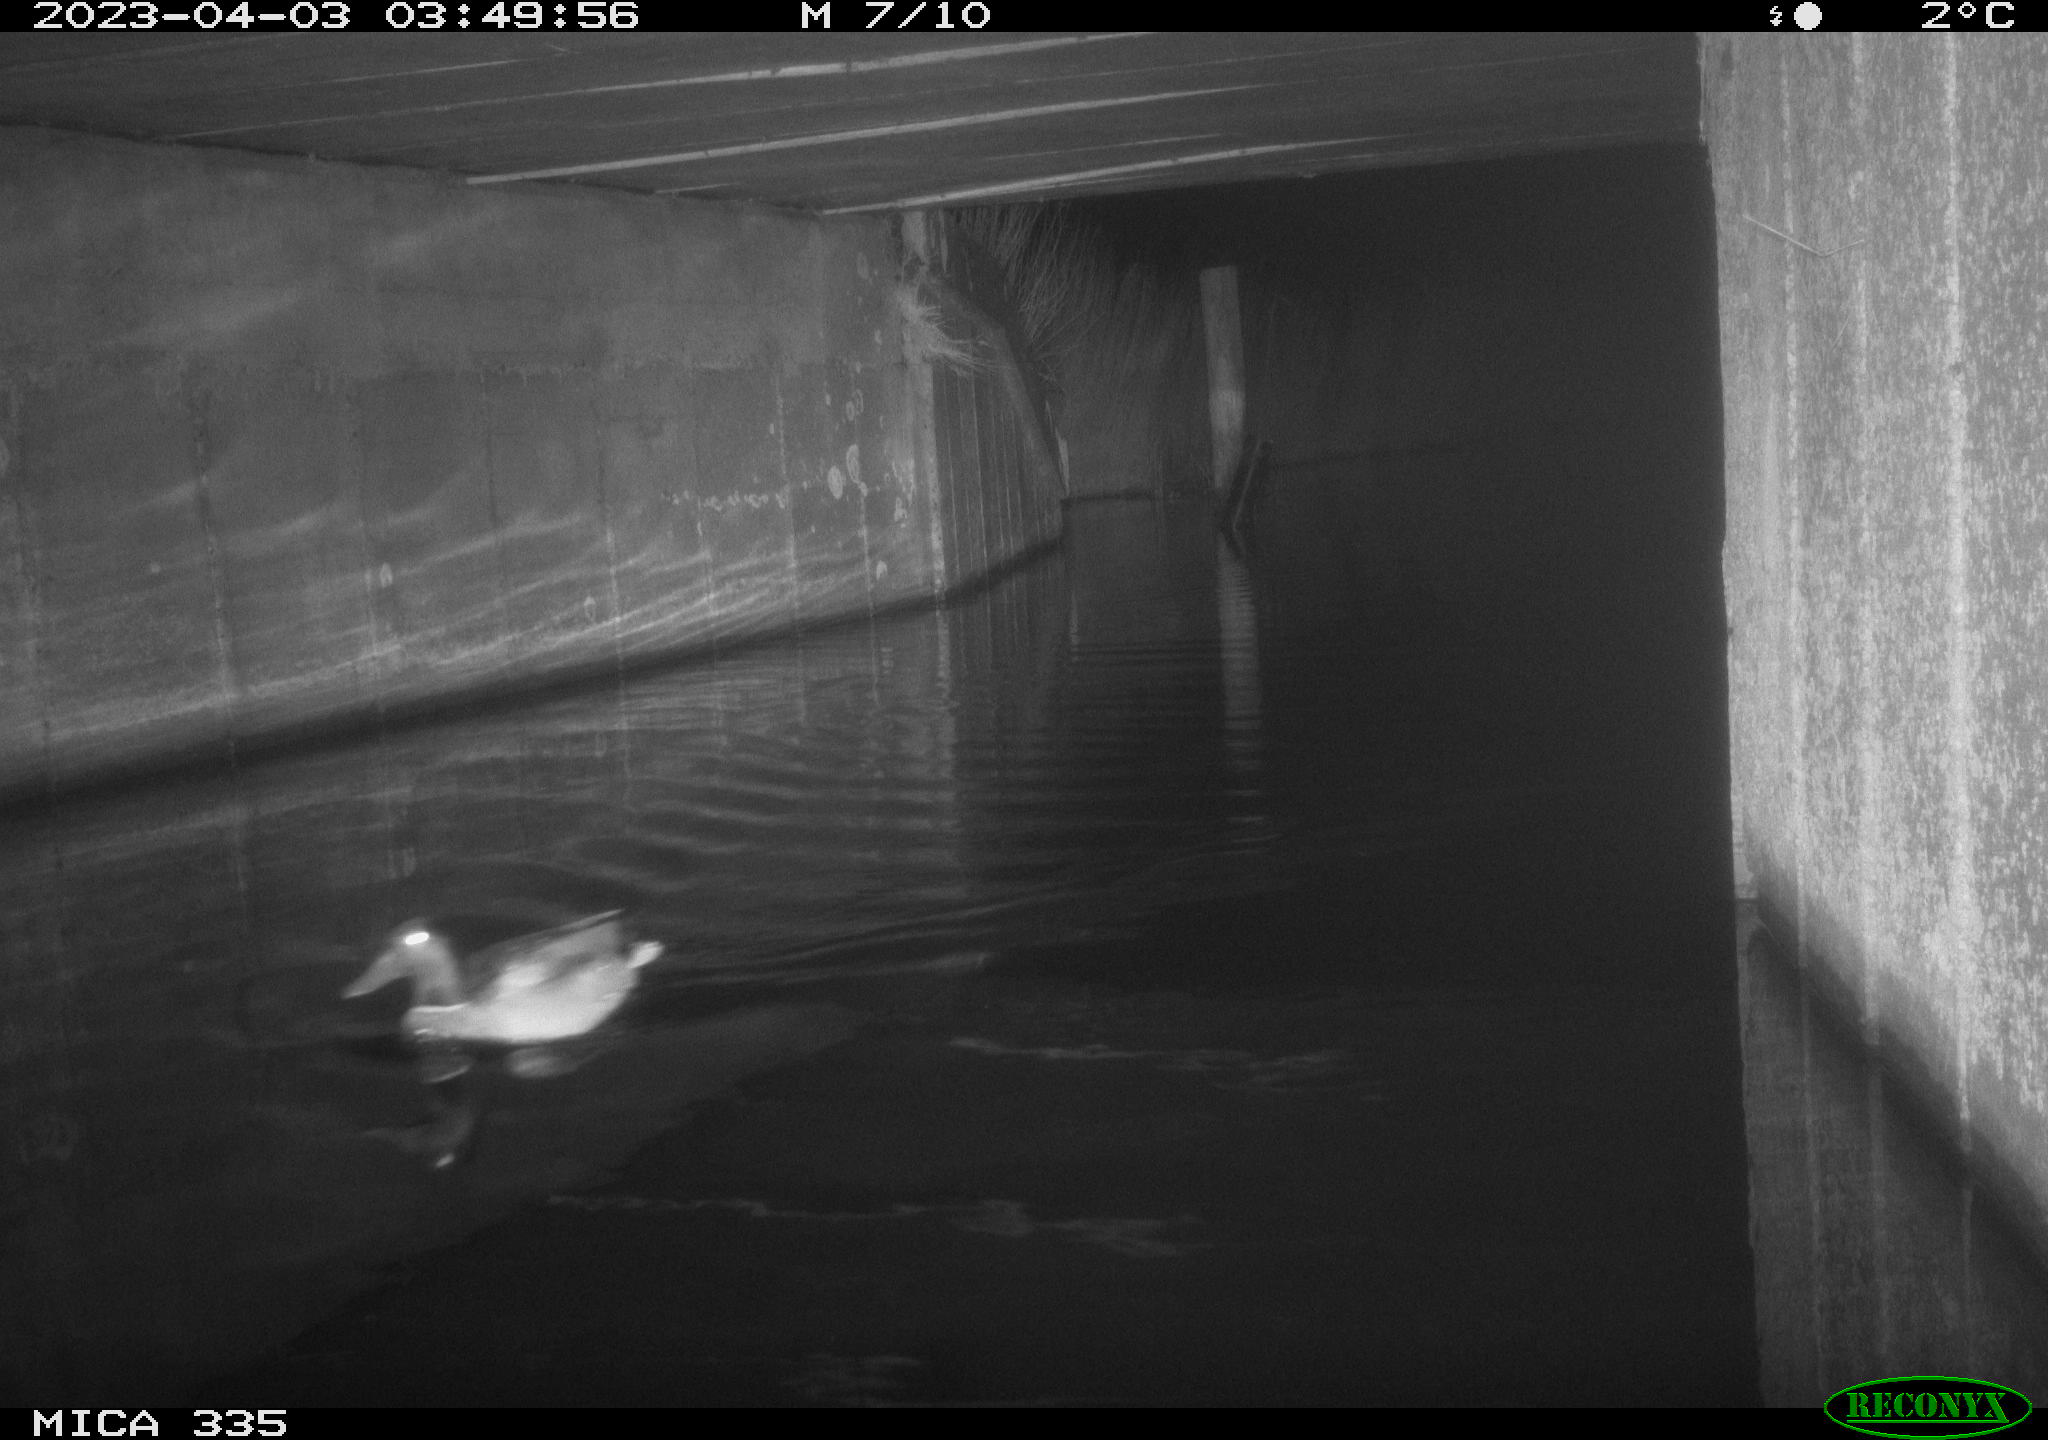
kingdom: Animalia
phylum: Chordata
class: Aves
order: Anseriformes
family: Anatidae
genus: Anas
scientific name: Anas
